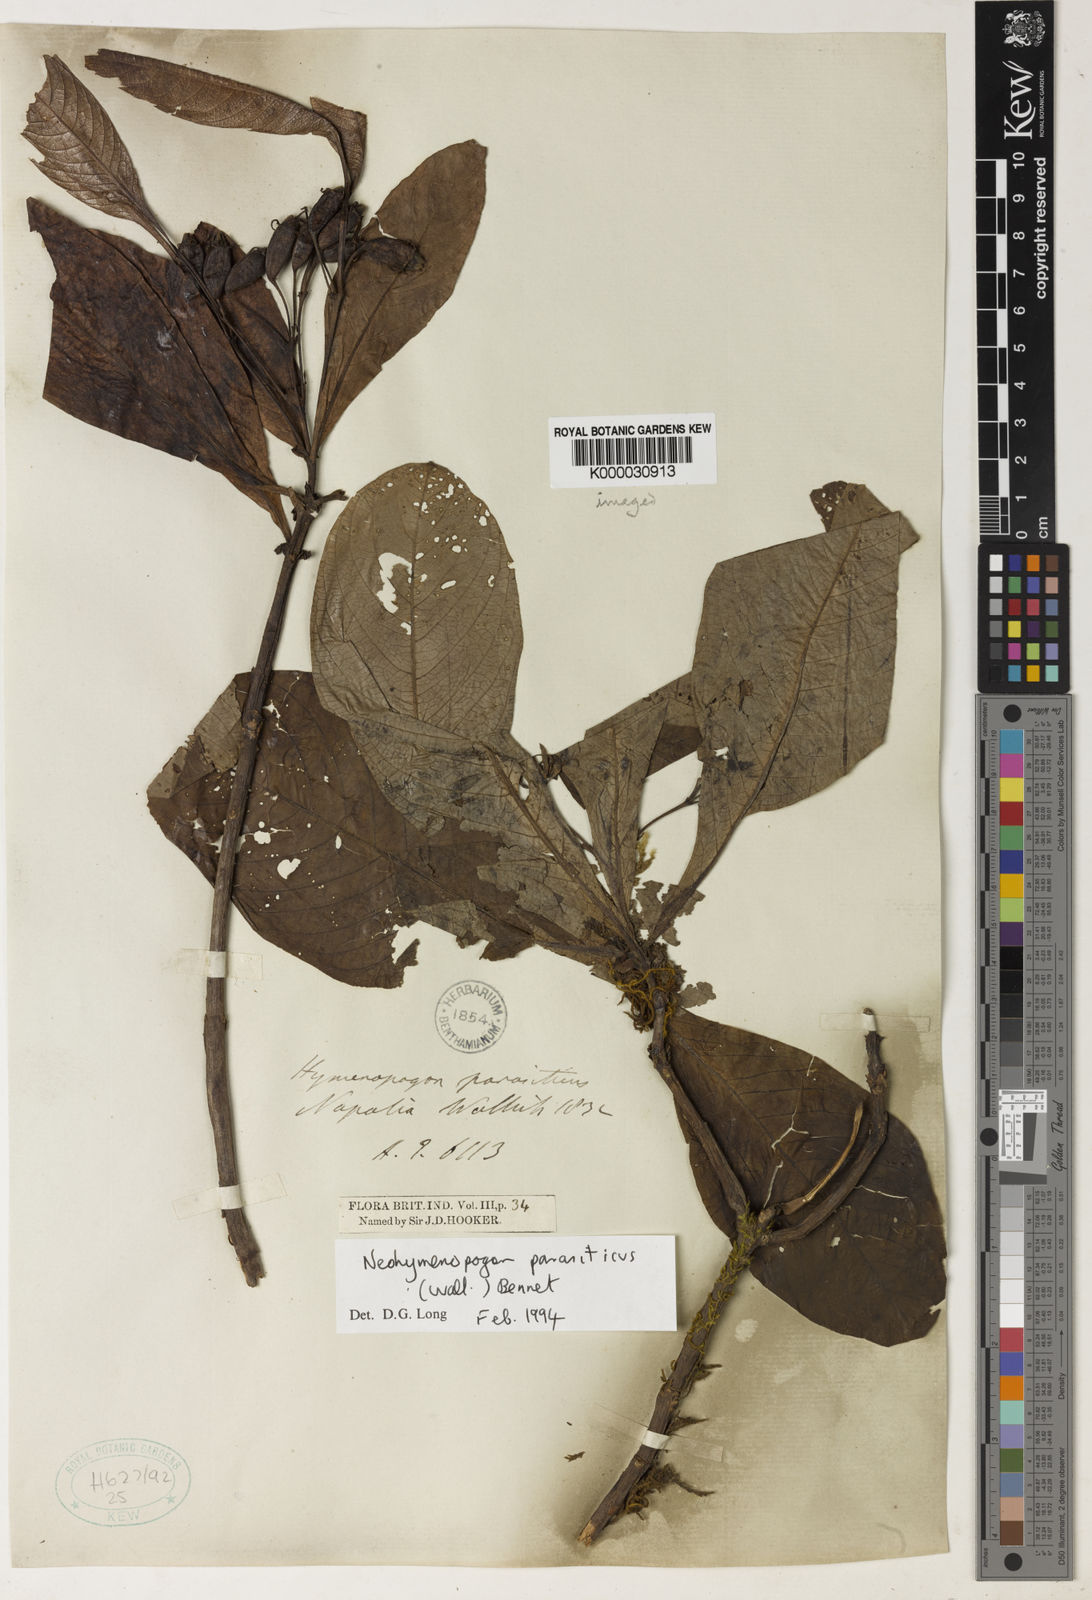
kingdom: Plantae
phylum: Tracheophyta
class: Magnoliopsida
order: Gentianales
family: Rubiaceae
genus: Neohymenopogon
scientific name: Neohymenopogon parasiticus
